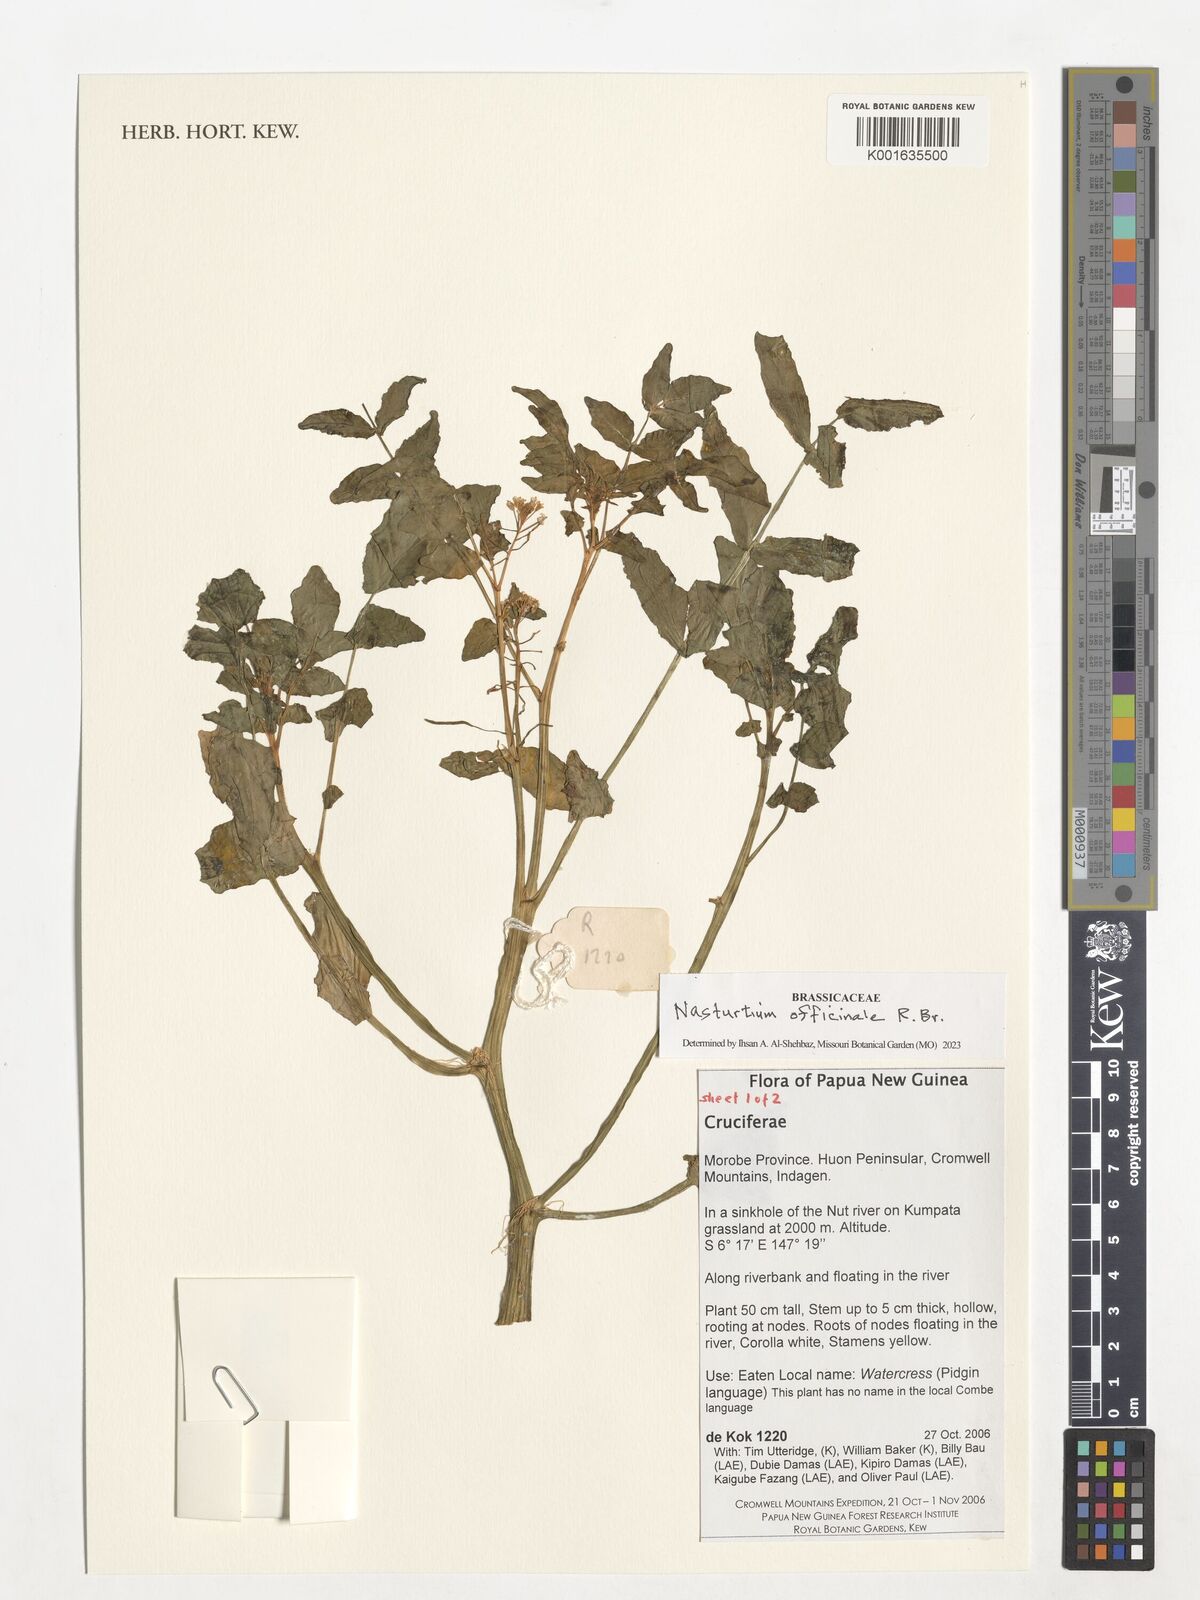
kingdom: Plantae
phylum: Tracheophyta
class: Magnoliopsida
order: Brassicales
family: Brassicaceae
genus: Nasturtium
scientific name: Nasturtium officinale
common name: Watercress
